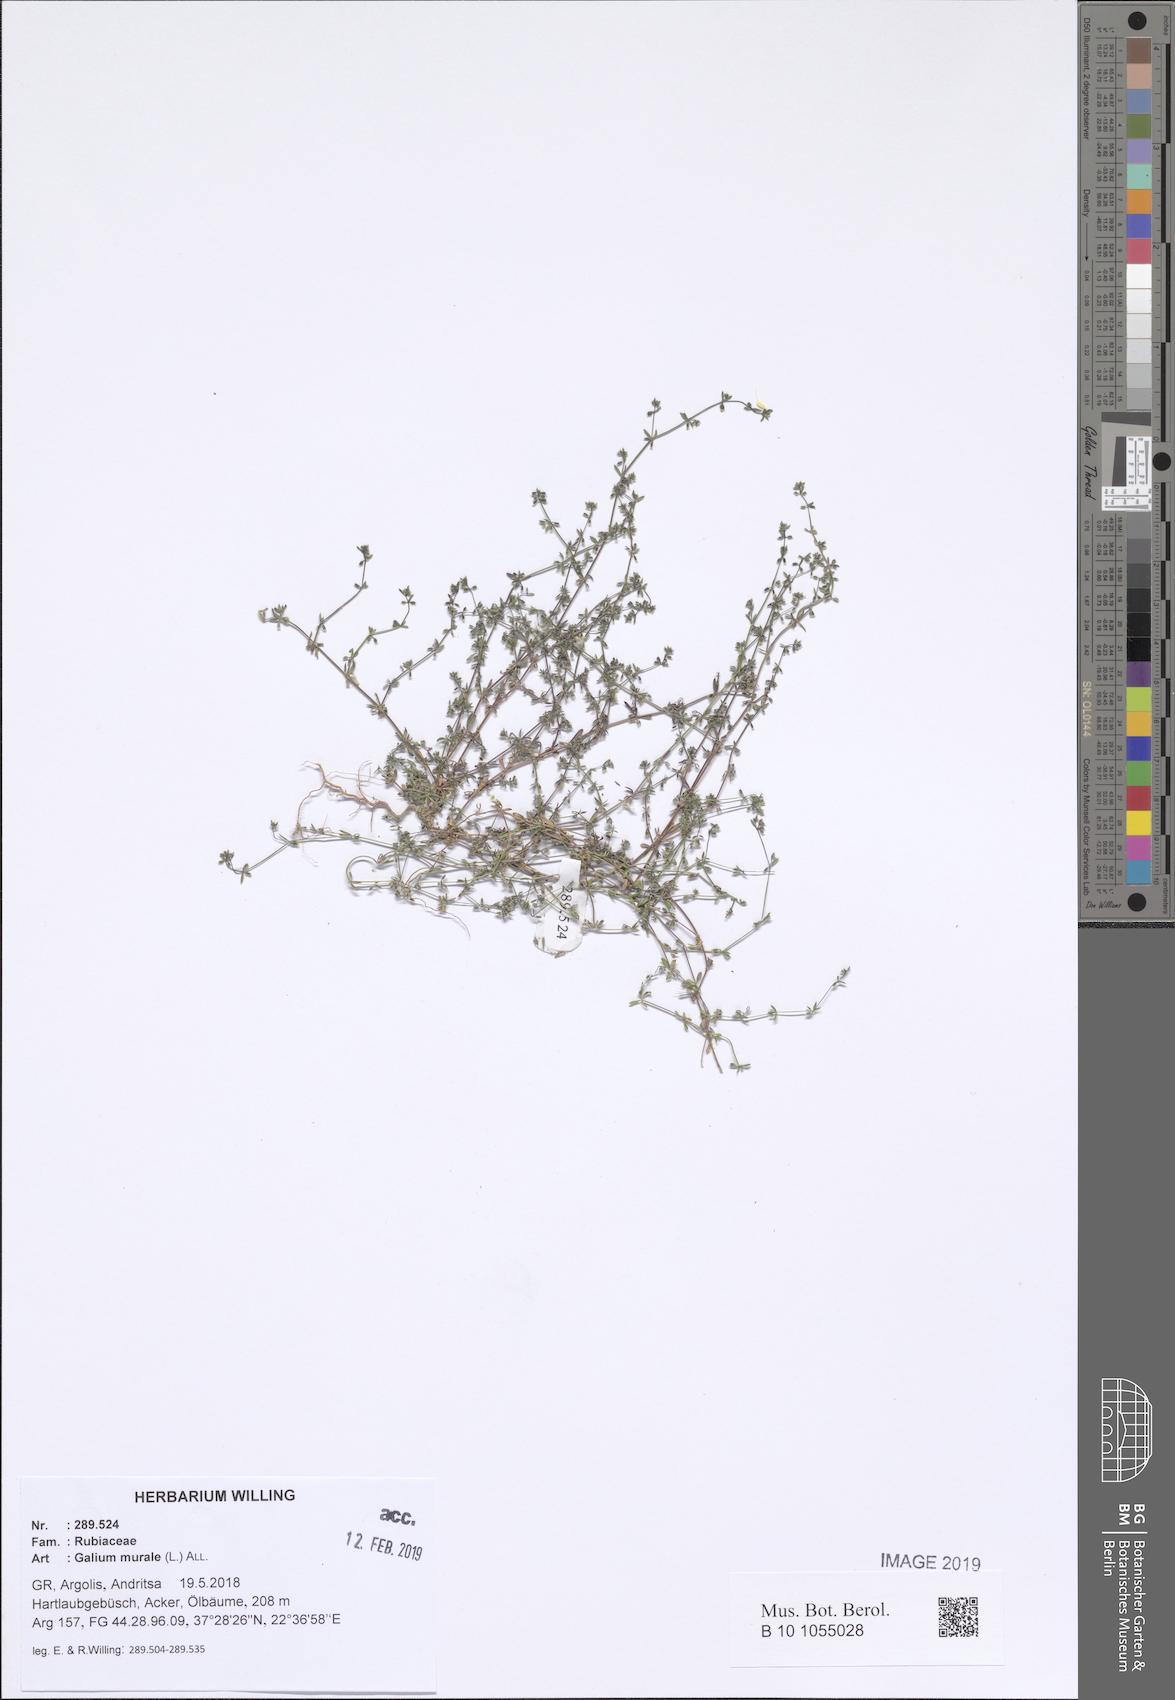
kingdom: Plantae
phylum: Tracheophyta
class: Magnoliopsida
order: Gentianales
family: Rubiaceae
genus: Galium
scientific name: Galium murale
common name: Yellow wall bedstraw
